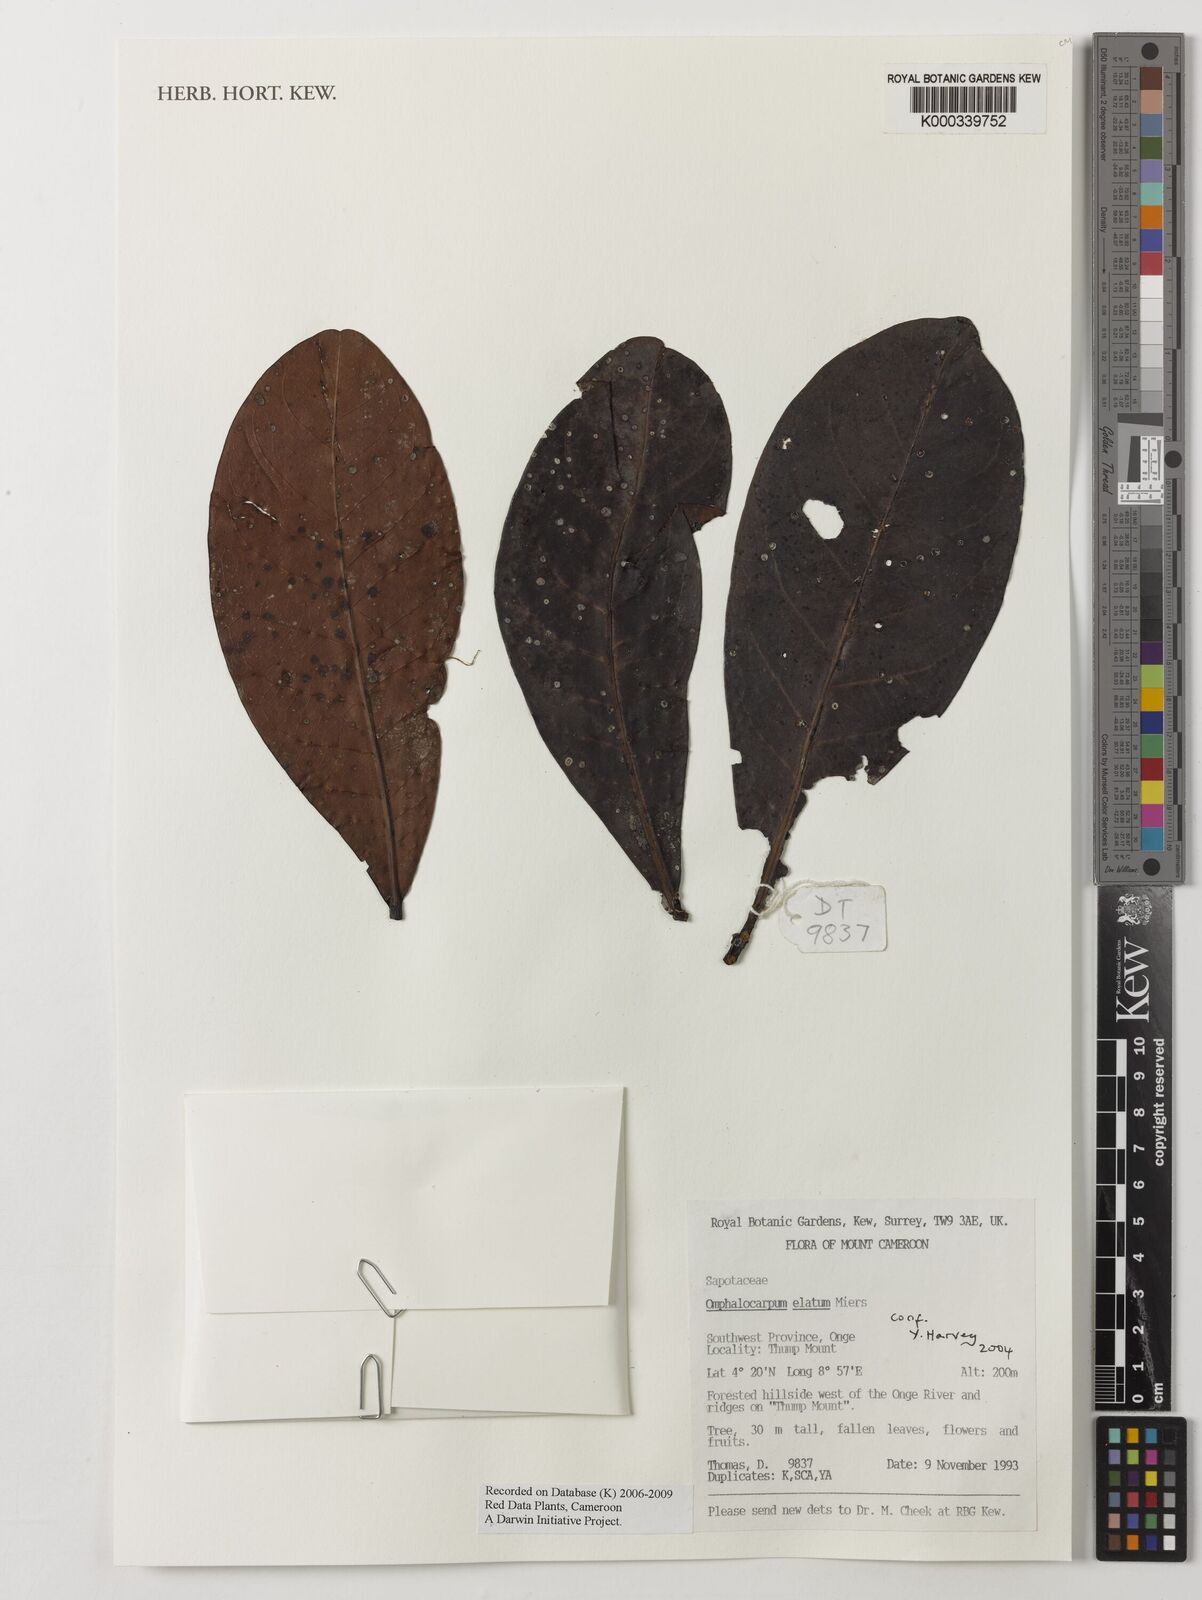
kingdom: Plantae
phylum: Tracheophyta
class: Magnoliopsida
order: Ericales
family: Sapotaceae
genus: Omphalocarpum
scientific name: Omphalocarpum elatum
